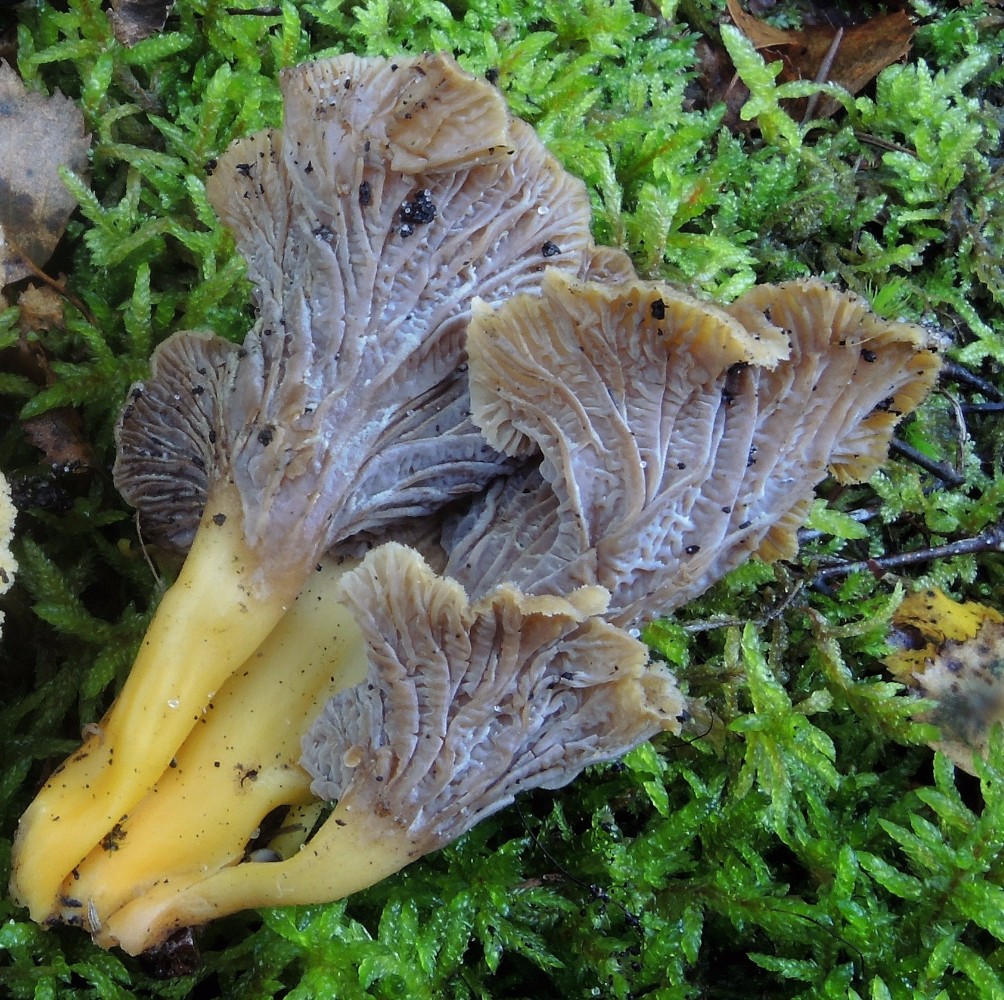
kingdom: Fungi
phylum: Basidiomycota
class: Agaricomycetes
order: Cantharellales
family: Hydnaceae
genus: Craterellus
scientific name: Craterellus tubaeformis
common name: tragt-kantarel
